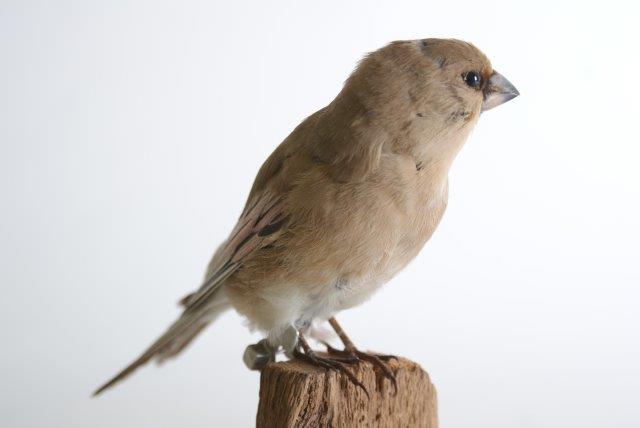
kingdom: Animalia
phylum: Chordata
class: Aves
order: Passeriformes
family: Fringillidae
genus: Rhodospiza
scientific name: Rhodospiza obsoleta
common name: Vale woestijnvink
